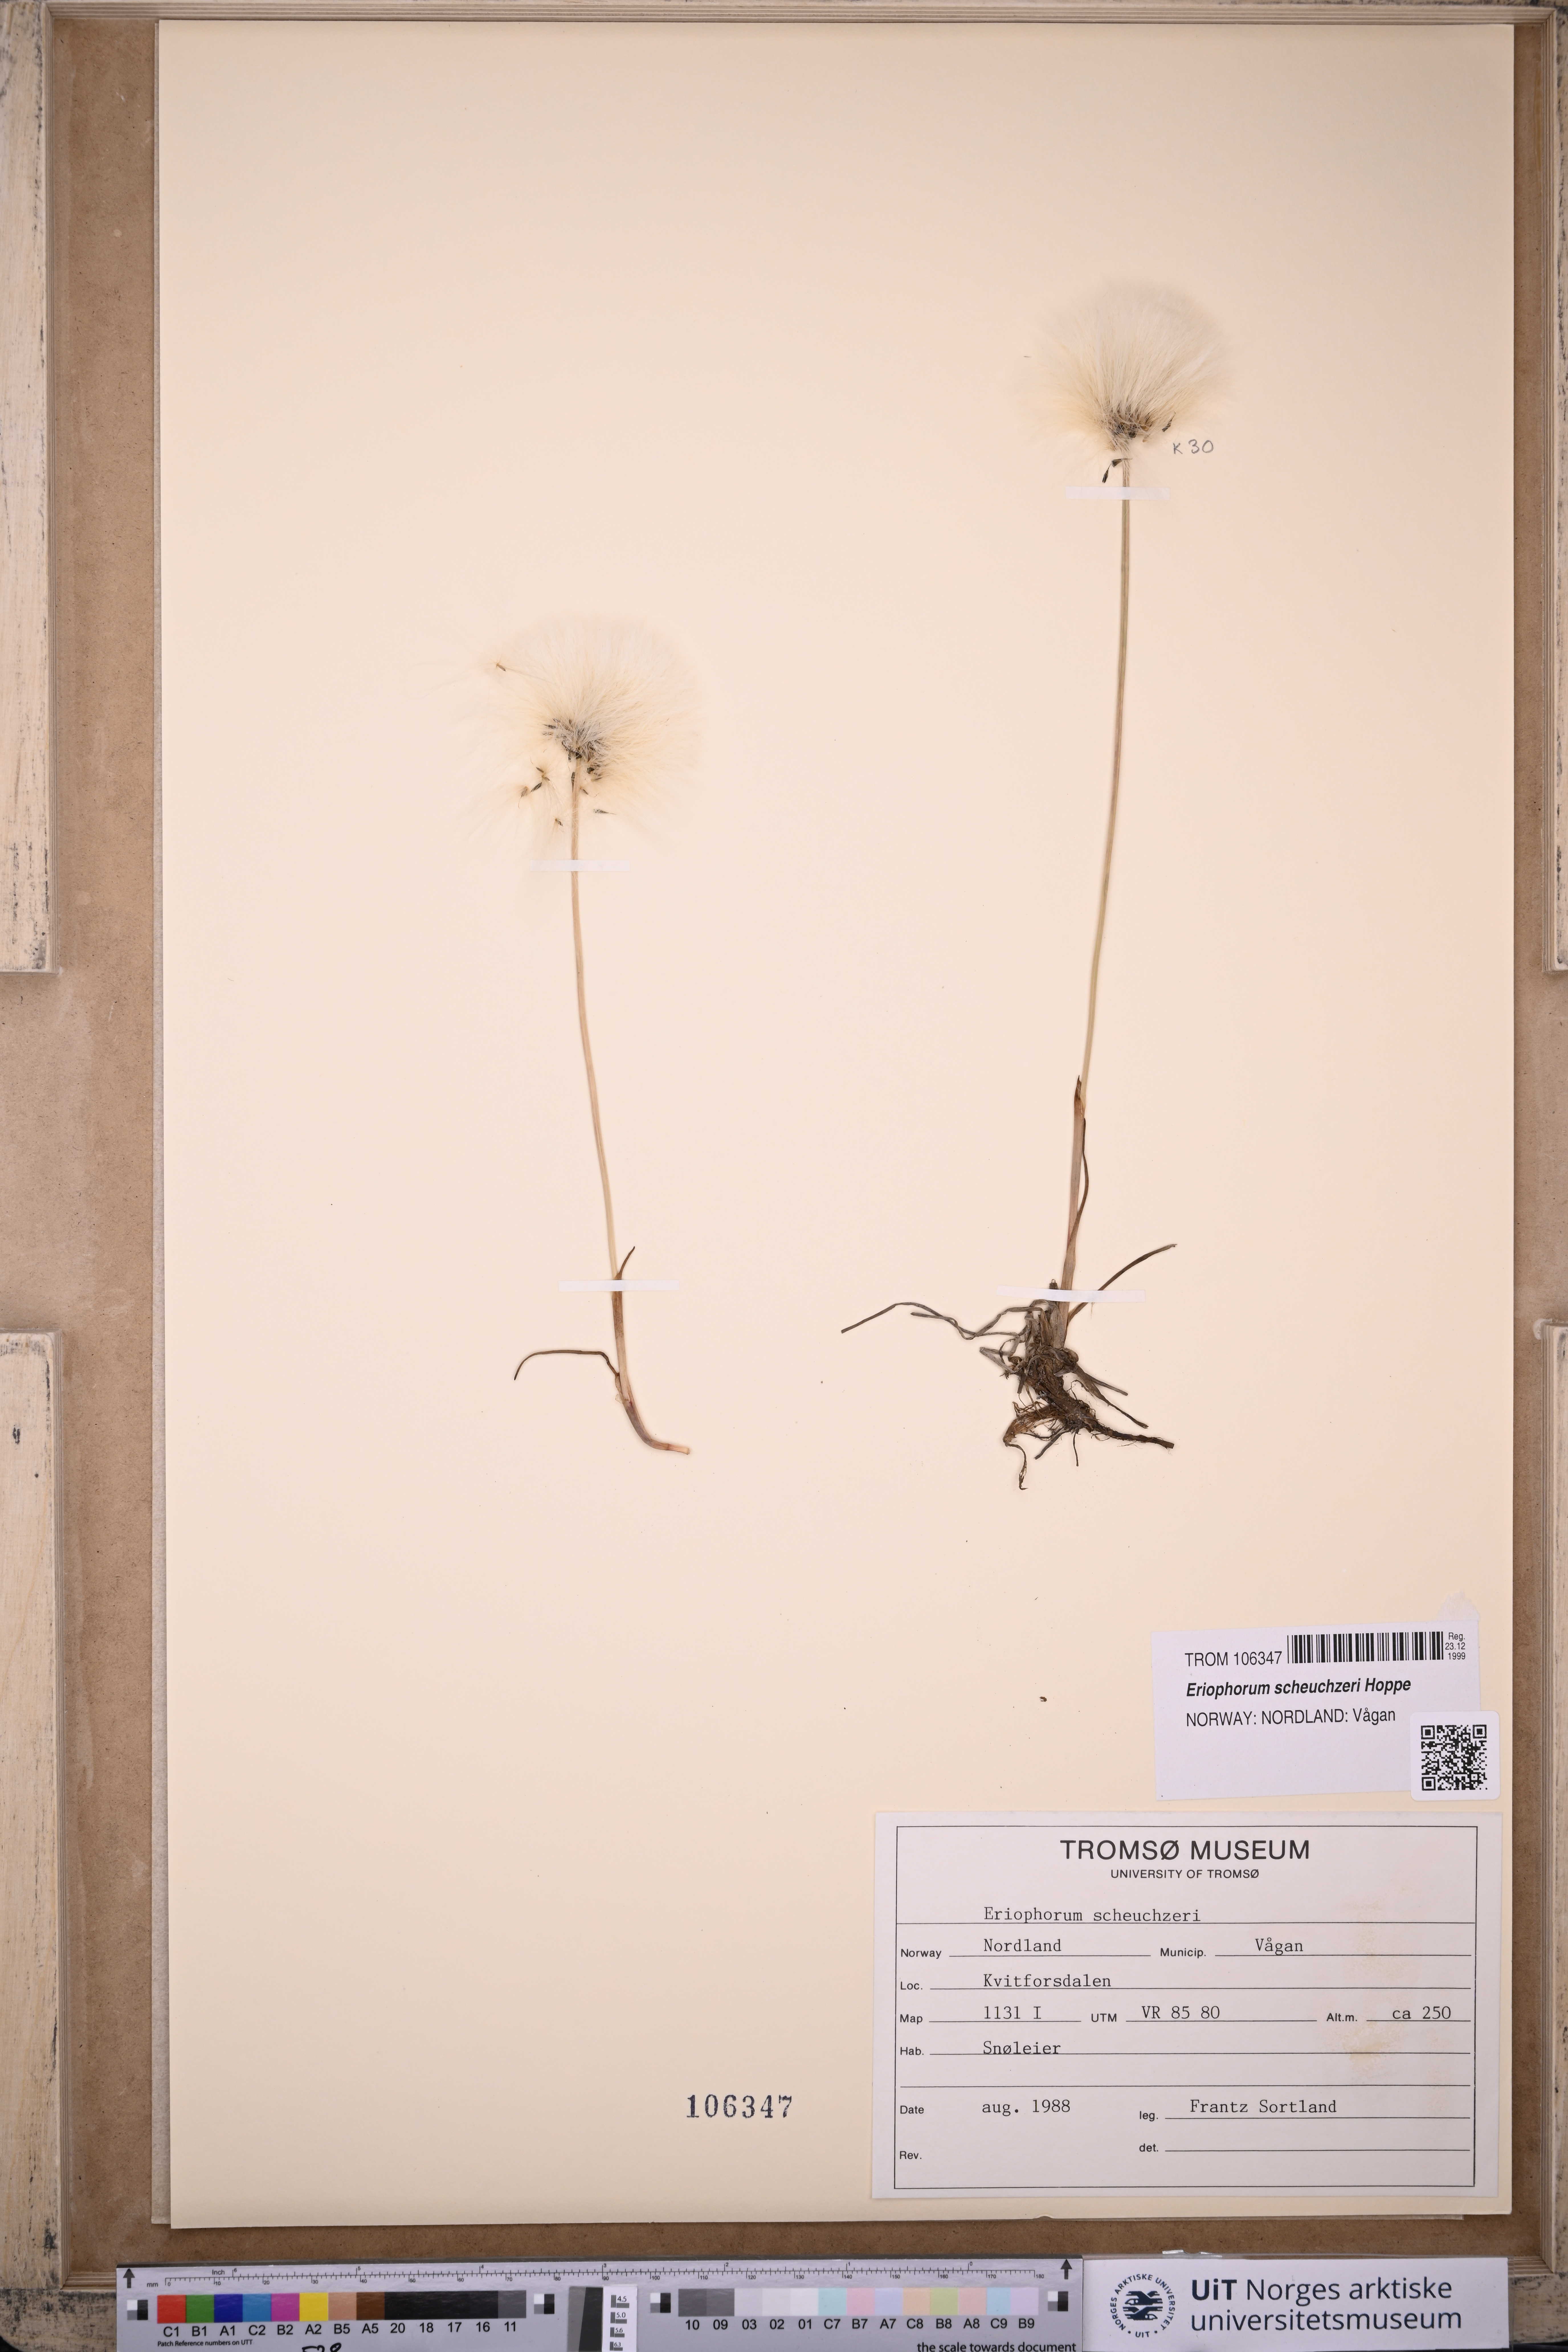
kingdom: Plantae
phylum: Tracheophyta
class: Liliopsida
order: Poales
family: Cyperaceae
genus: Eriophorum
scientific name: Eriophorum scheuchzeri
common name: Scheuchzer's cottongrass
